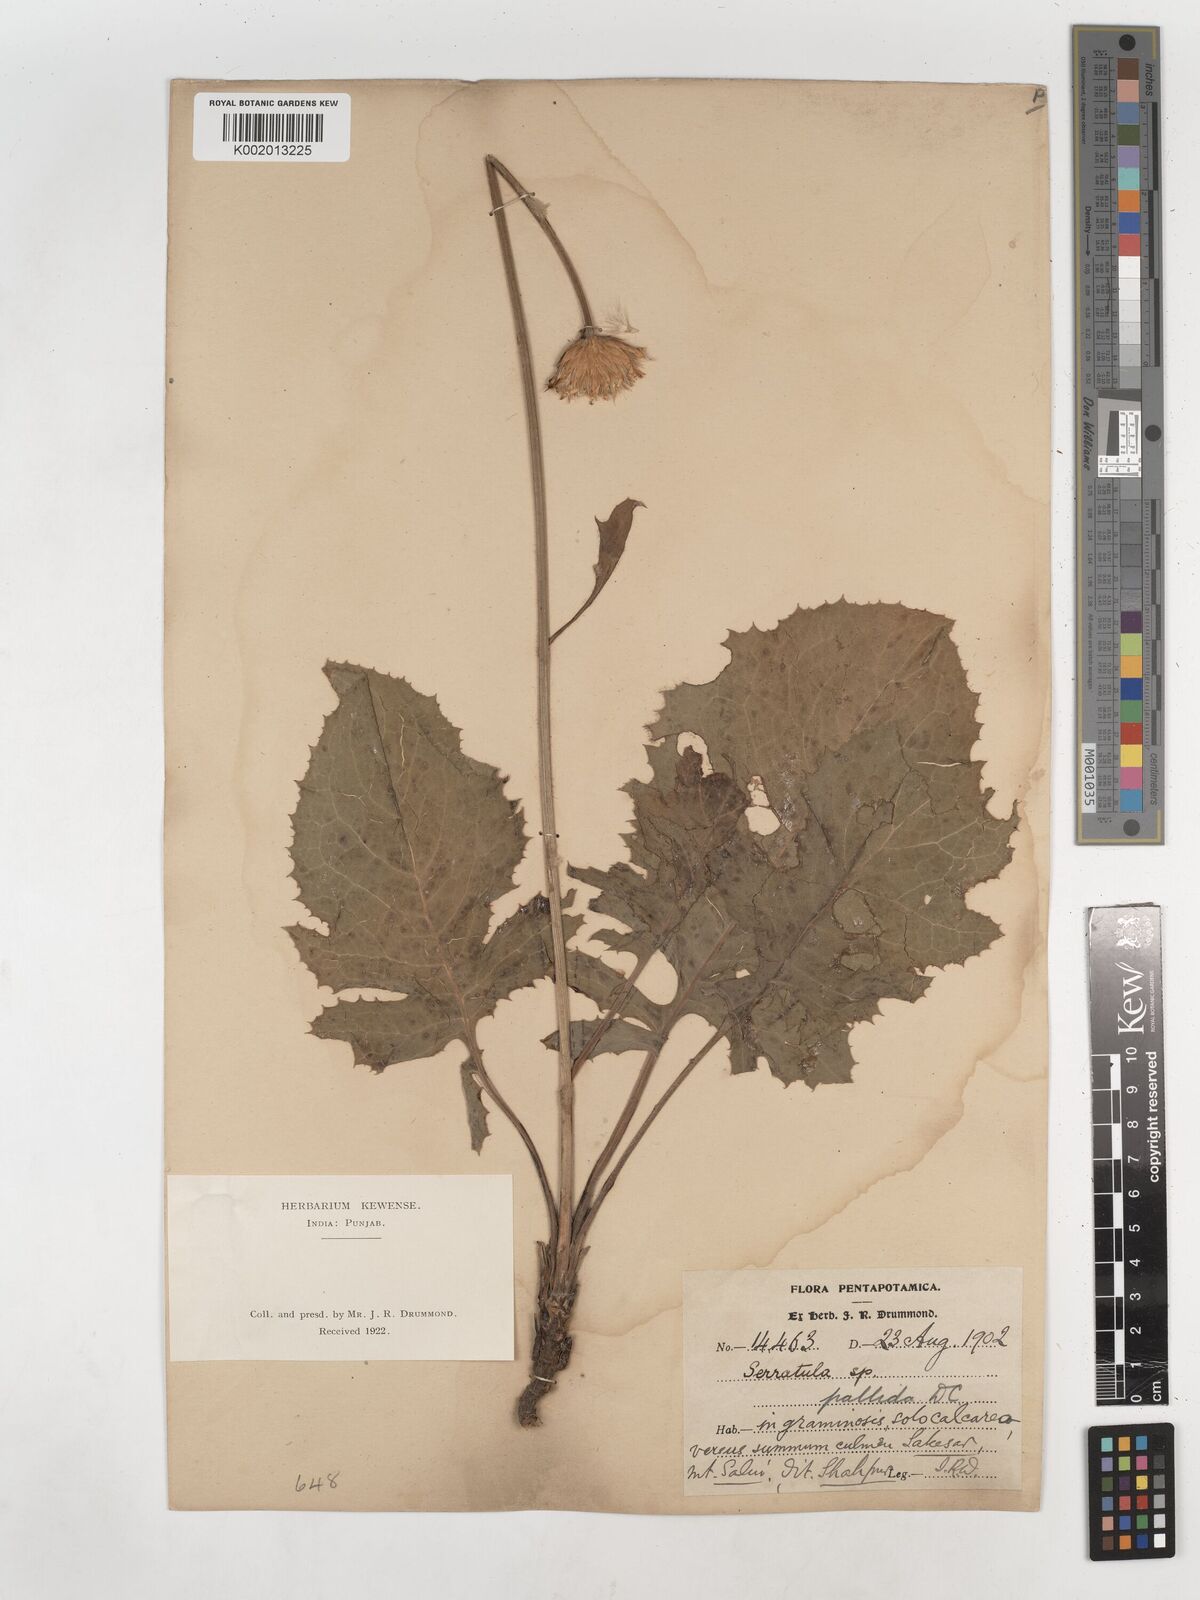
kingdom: Plantae
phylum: Tracheophyta
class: Magnoliopsida
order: Asterales
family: Asteraceae
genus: Klasea
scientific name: Klasea pallida
